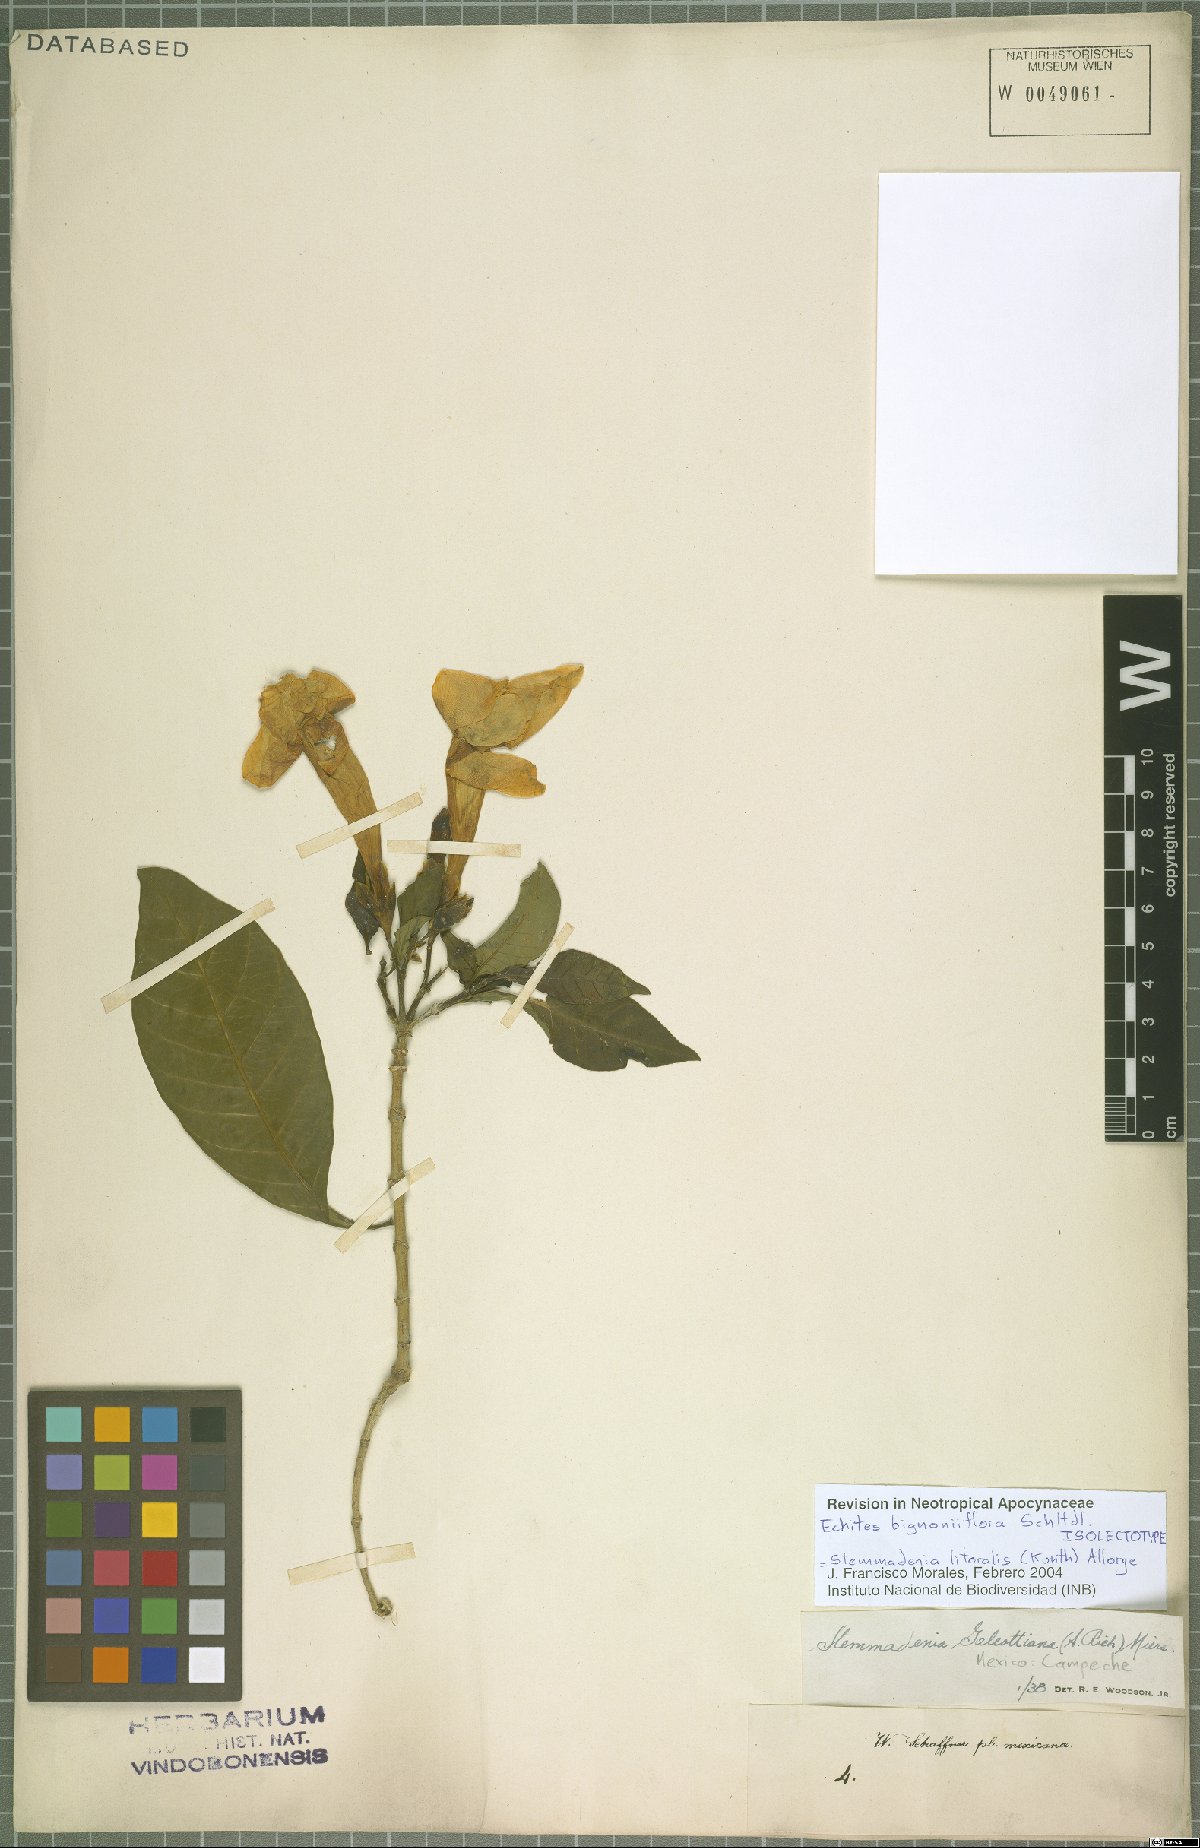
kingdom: Plantae
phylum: Tracheophyta
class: Magnoliopsida
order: Gentianales
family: Apocynaceae
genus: Tabernaemontana
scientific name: Tabernaemontana litoralis
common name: Milkwood
